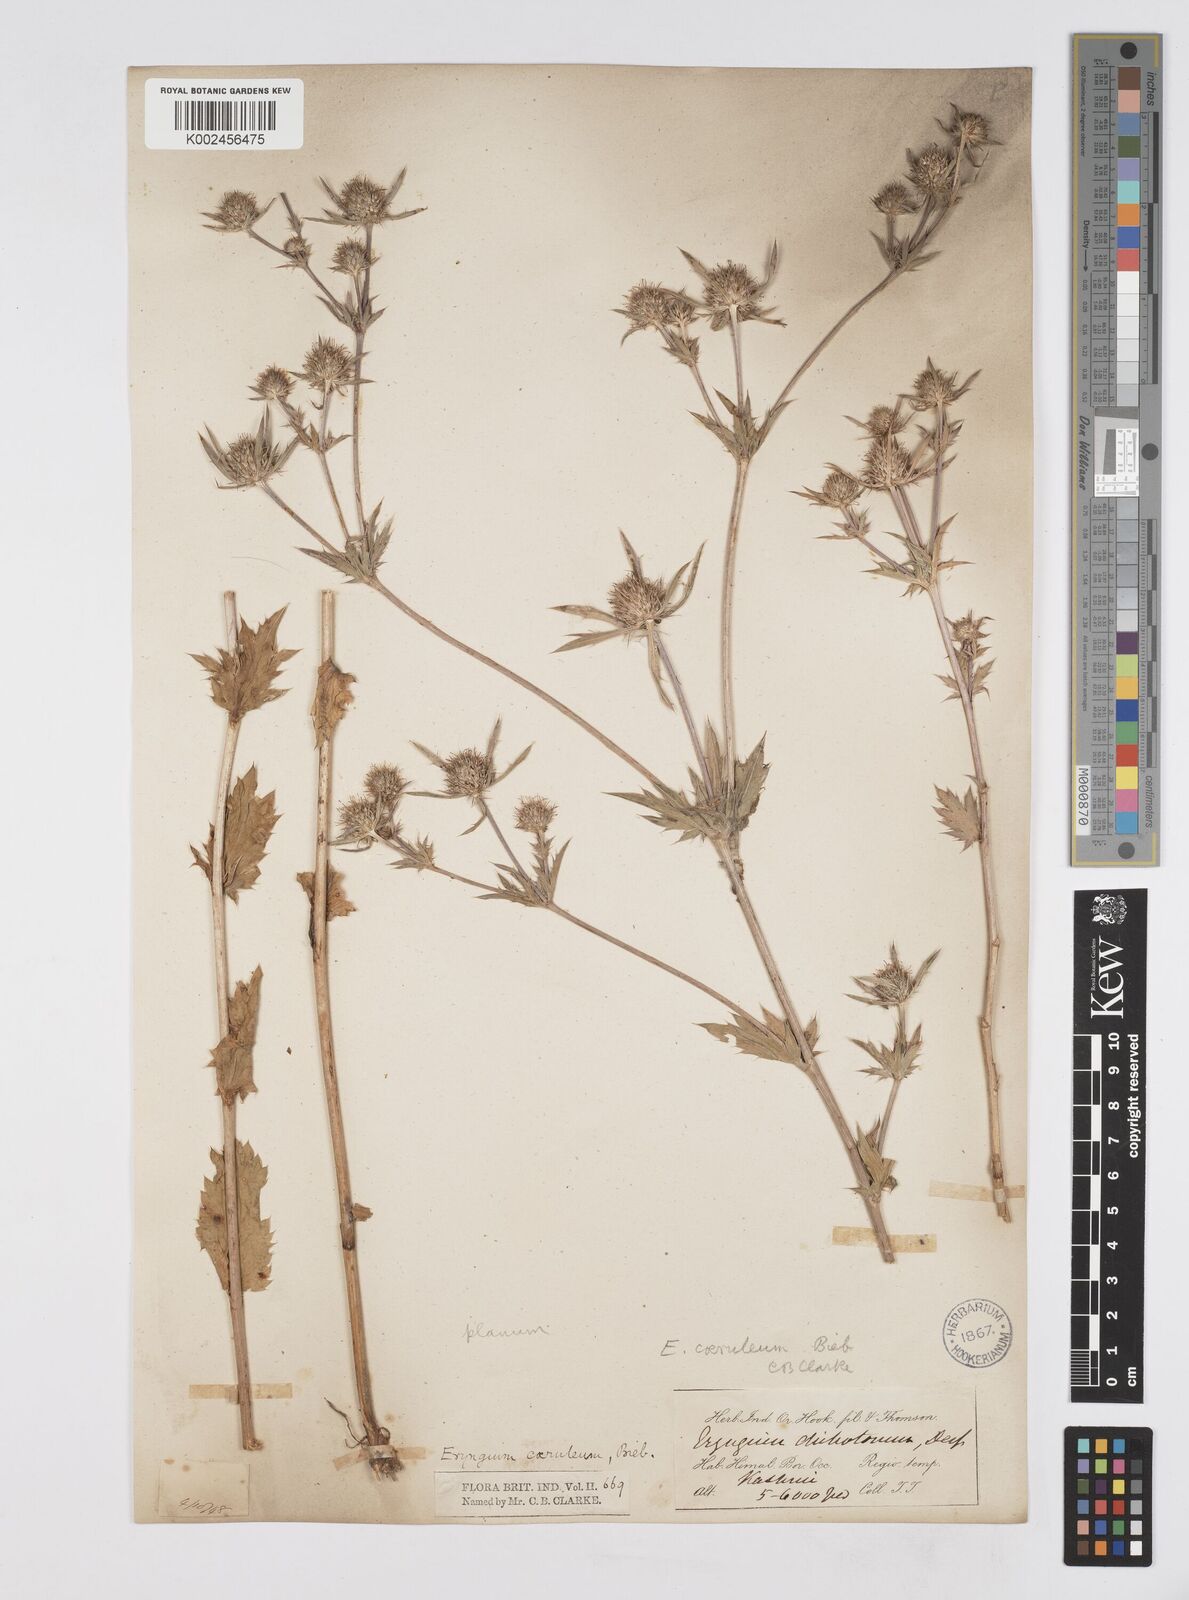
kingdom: Plantae
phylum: Tracheophyta
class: Magnoliopsida
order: Apiales
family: Apiaceae
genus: Eryngium
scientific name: Eryngium caeruleum
